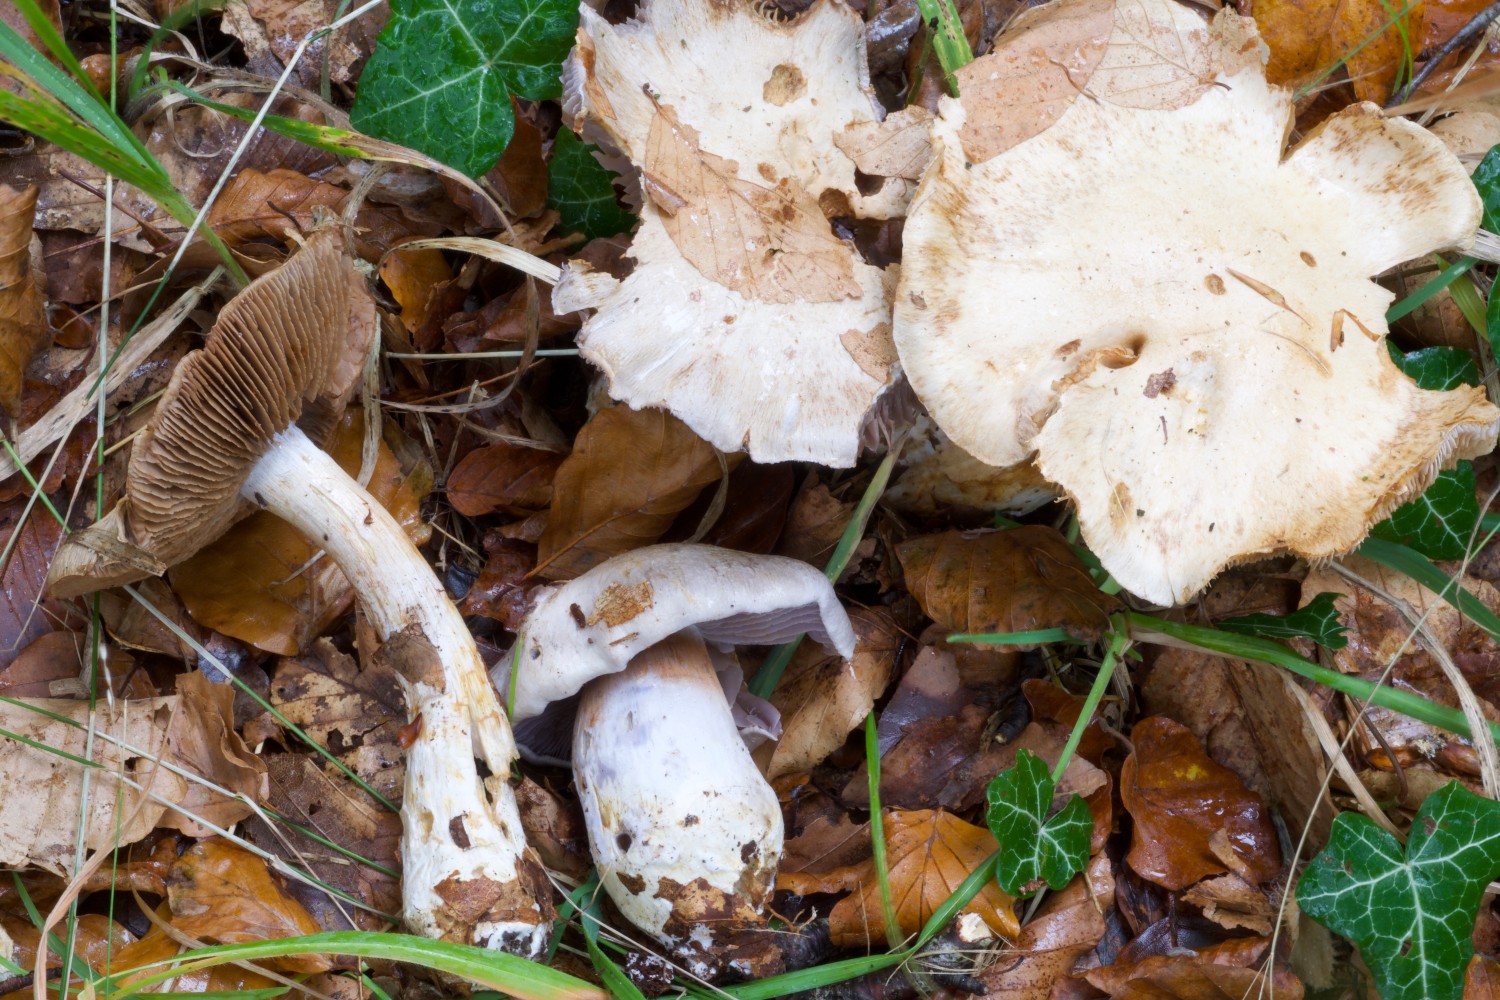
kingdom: Fungi
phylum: Basidiomycota
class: Agaricomycetes
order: Agaricales
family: Cortinariaceae
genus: Thaxterogaster
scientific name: Thaxterogaster argenteolilacinus
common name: sølvskinnende slørhat
